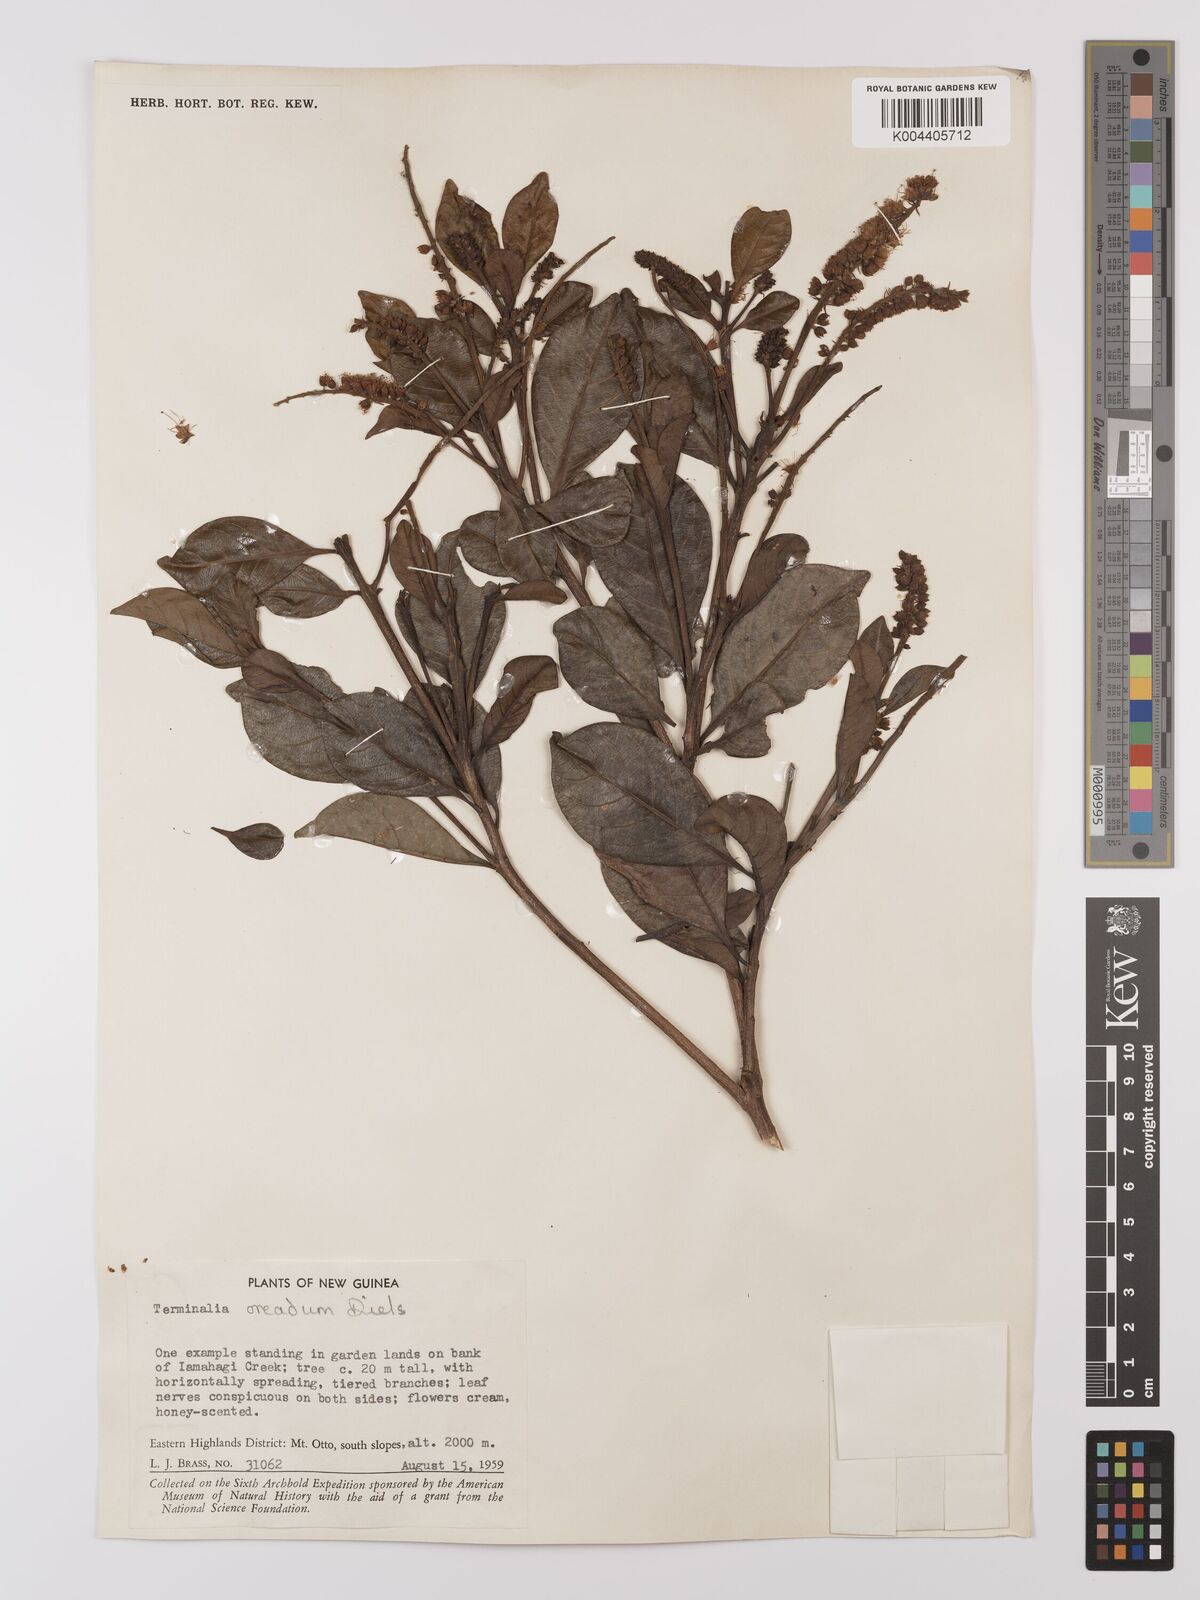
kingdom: Plantae
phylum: Tracheophyta
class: Magnoliopsida
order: Myrtales
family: Combretaceae
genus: Terminalia
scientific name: Terminalia oreadum
